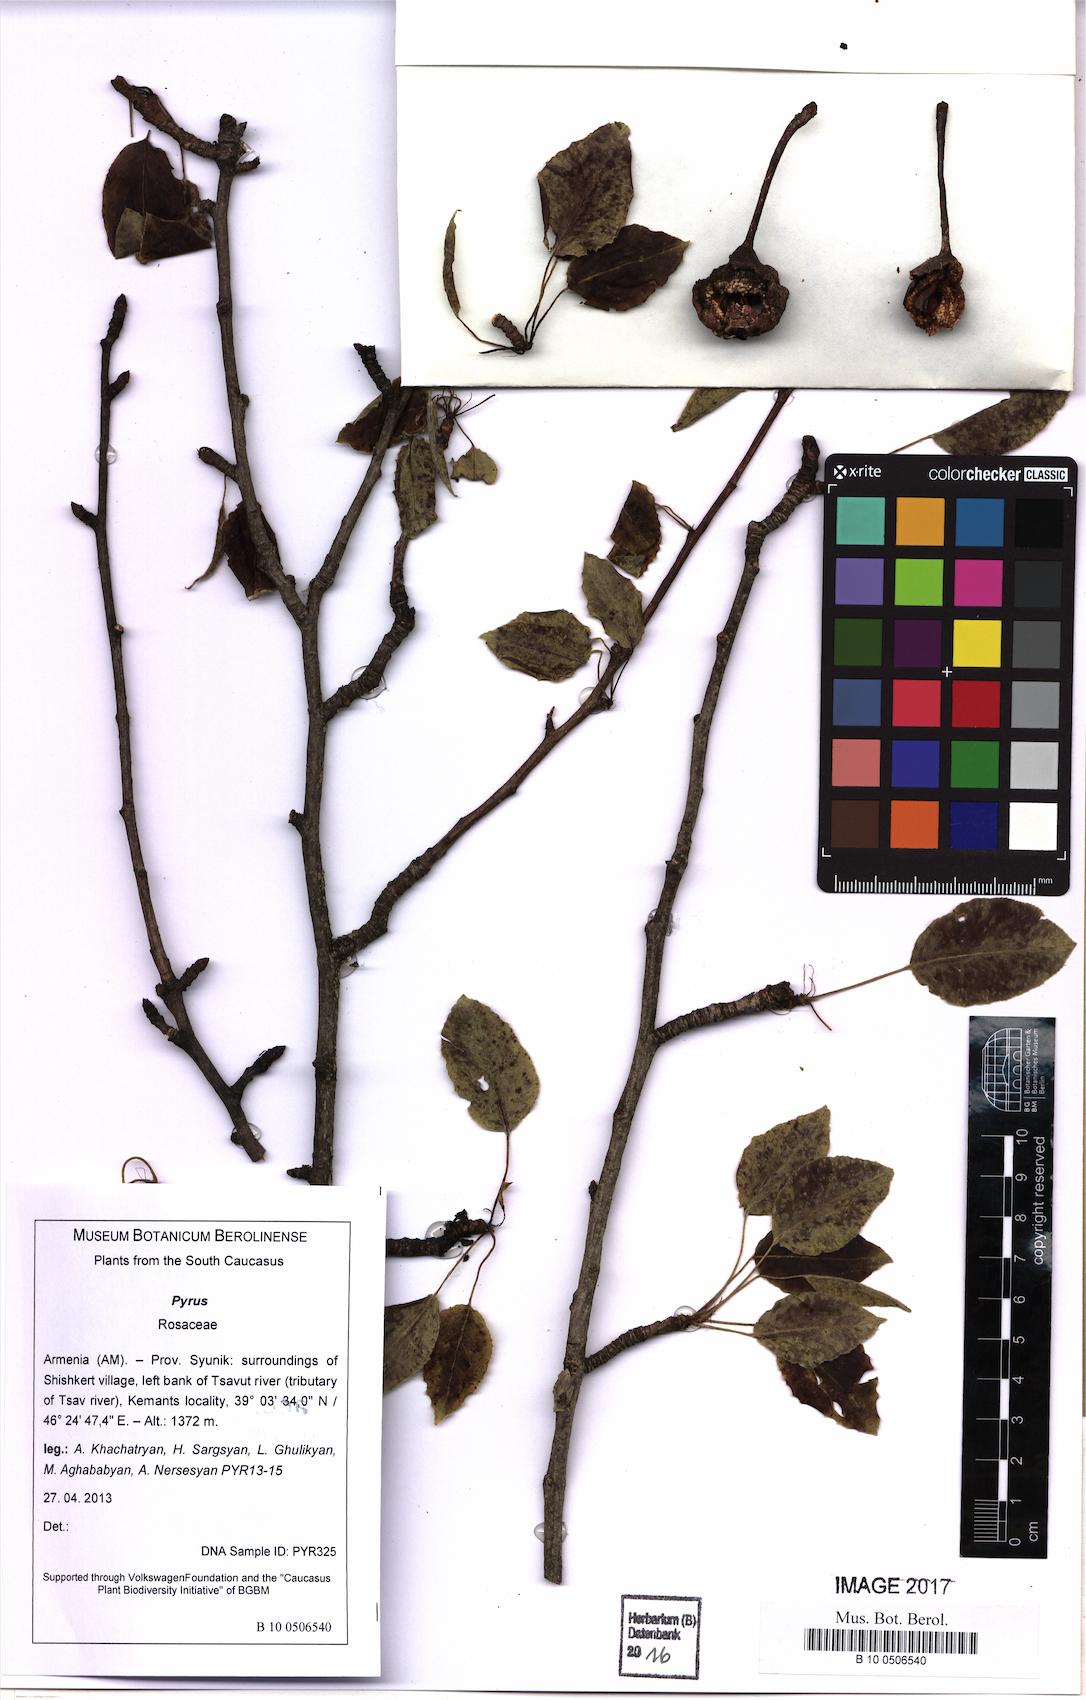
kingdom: Plantae
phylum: Tracheophyta
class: Magnoliopsida
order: Rosales
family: Rosaceae
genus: Pyrus
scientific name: Pyrus
